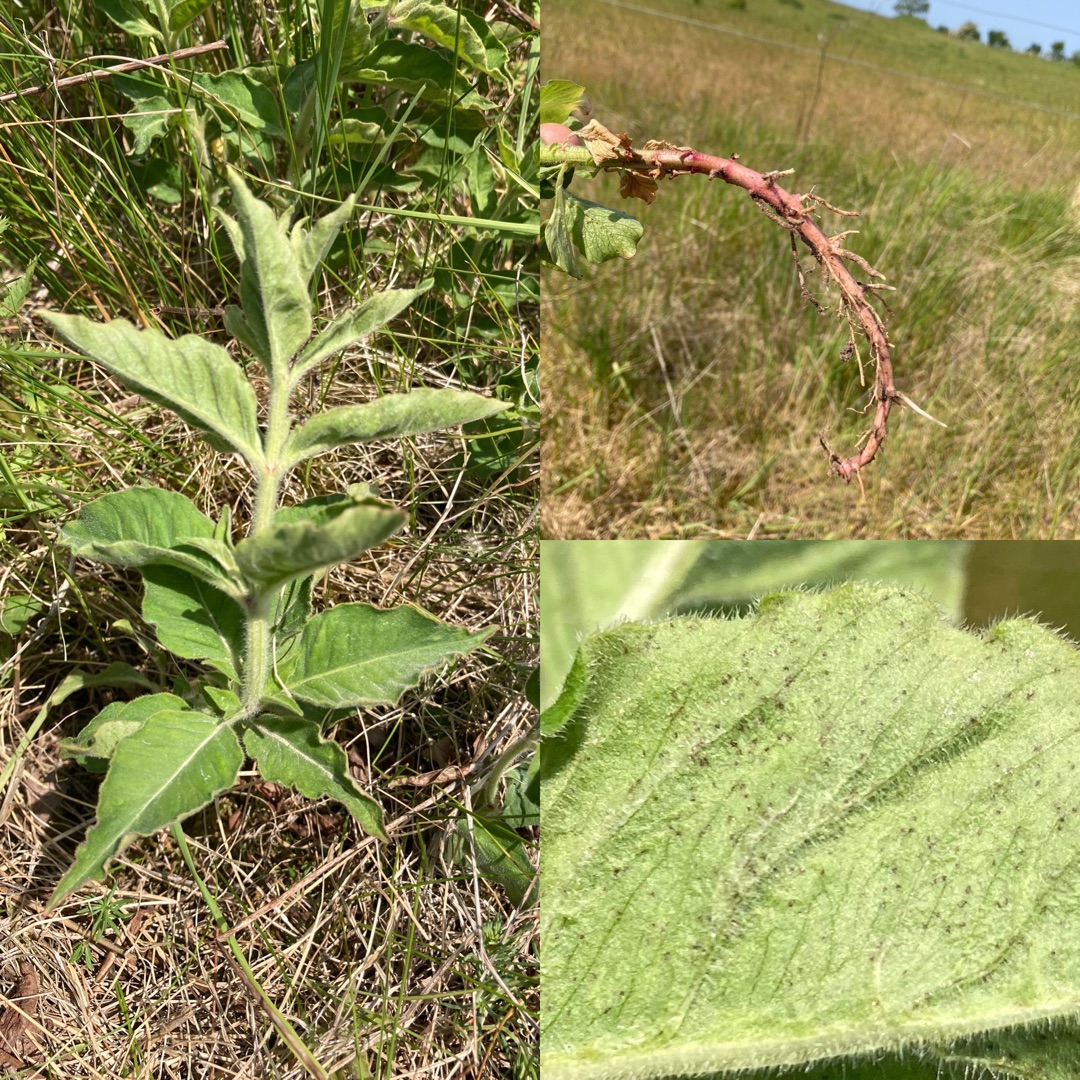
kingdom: Plantae
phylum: Tracheophyta
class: Magnoliopsida
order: Ericales
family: Primulaceae
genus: Lysimachia
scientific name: Lysimachia punctata
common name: Prikbladet fredløs
